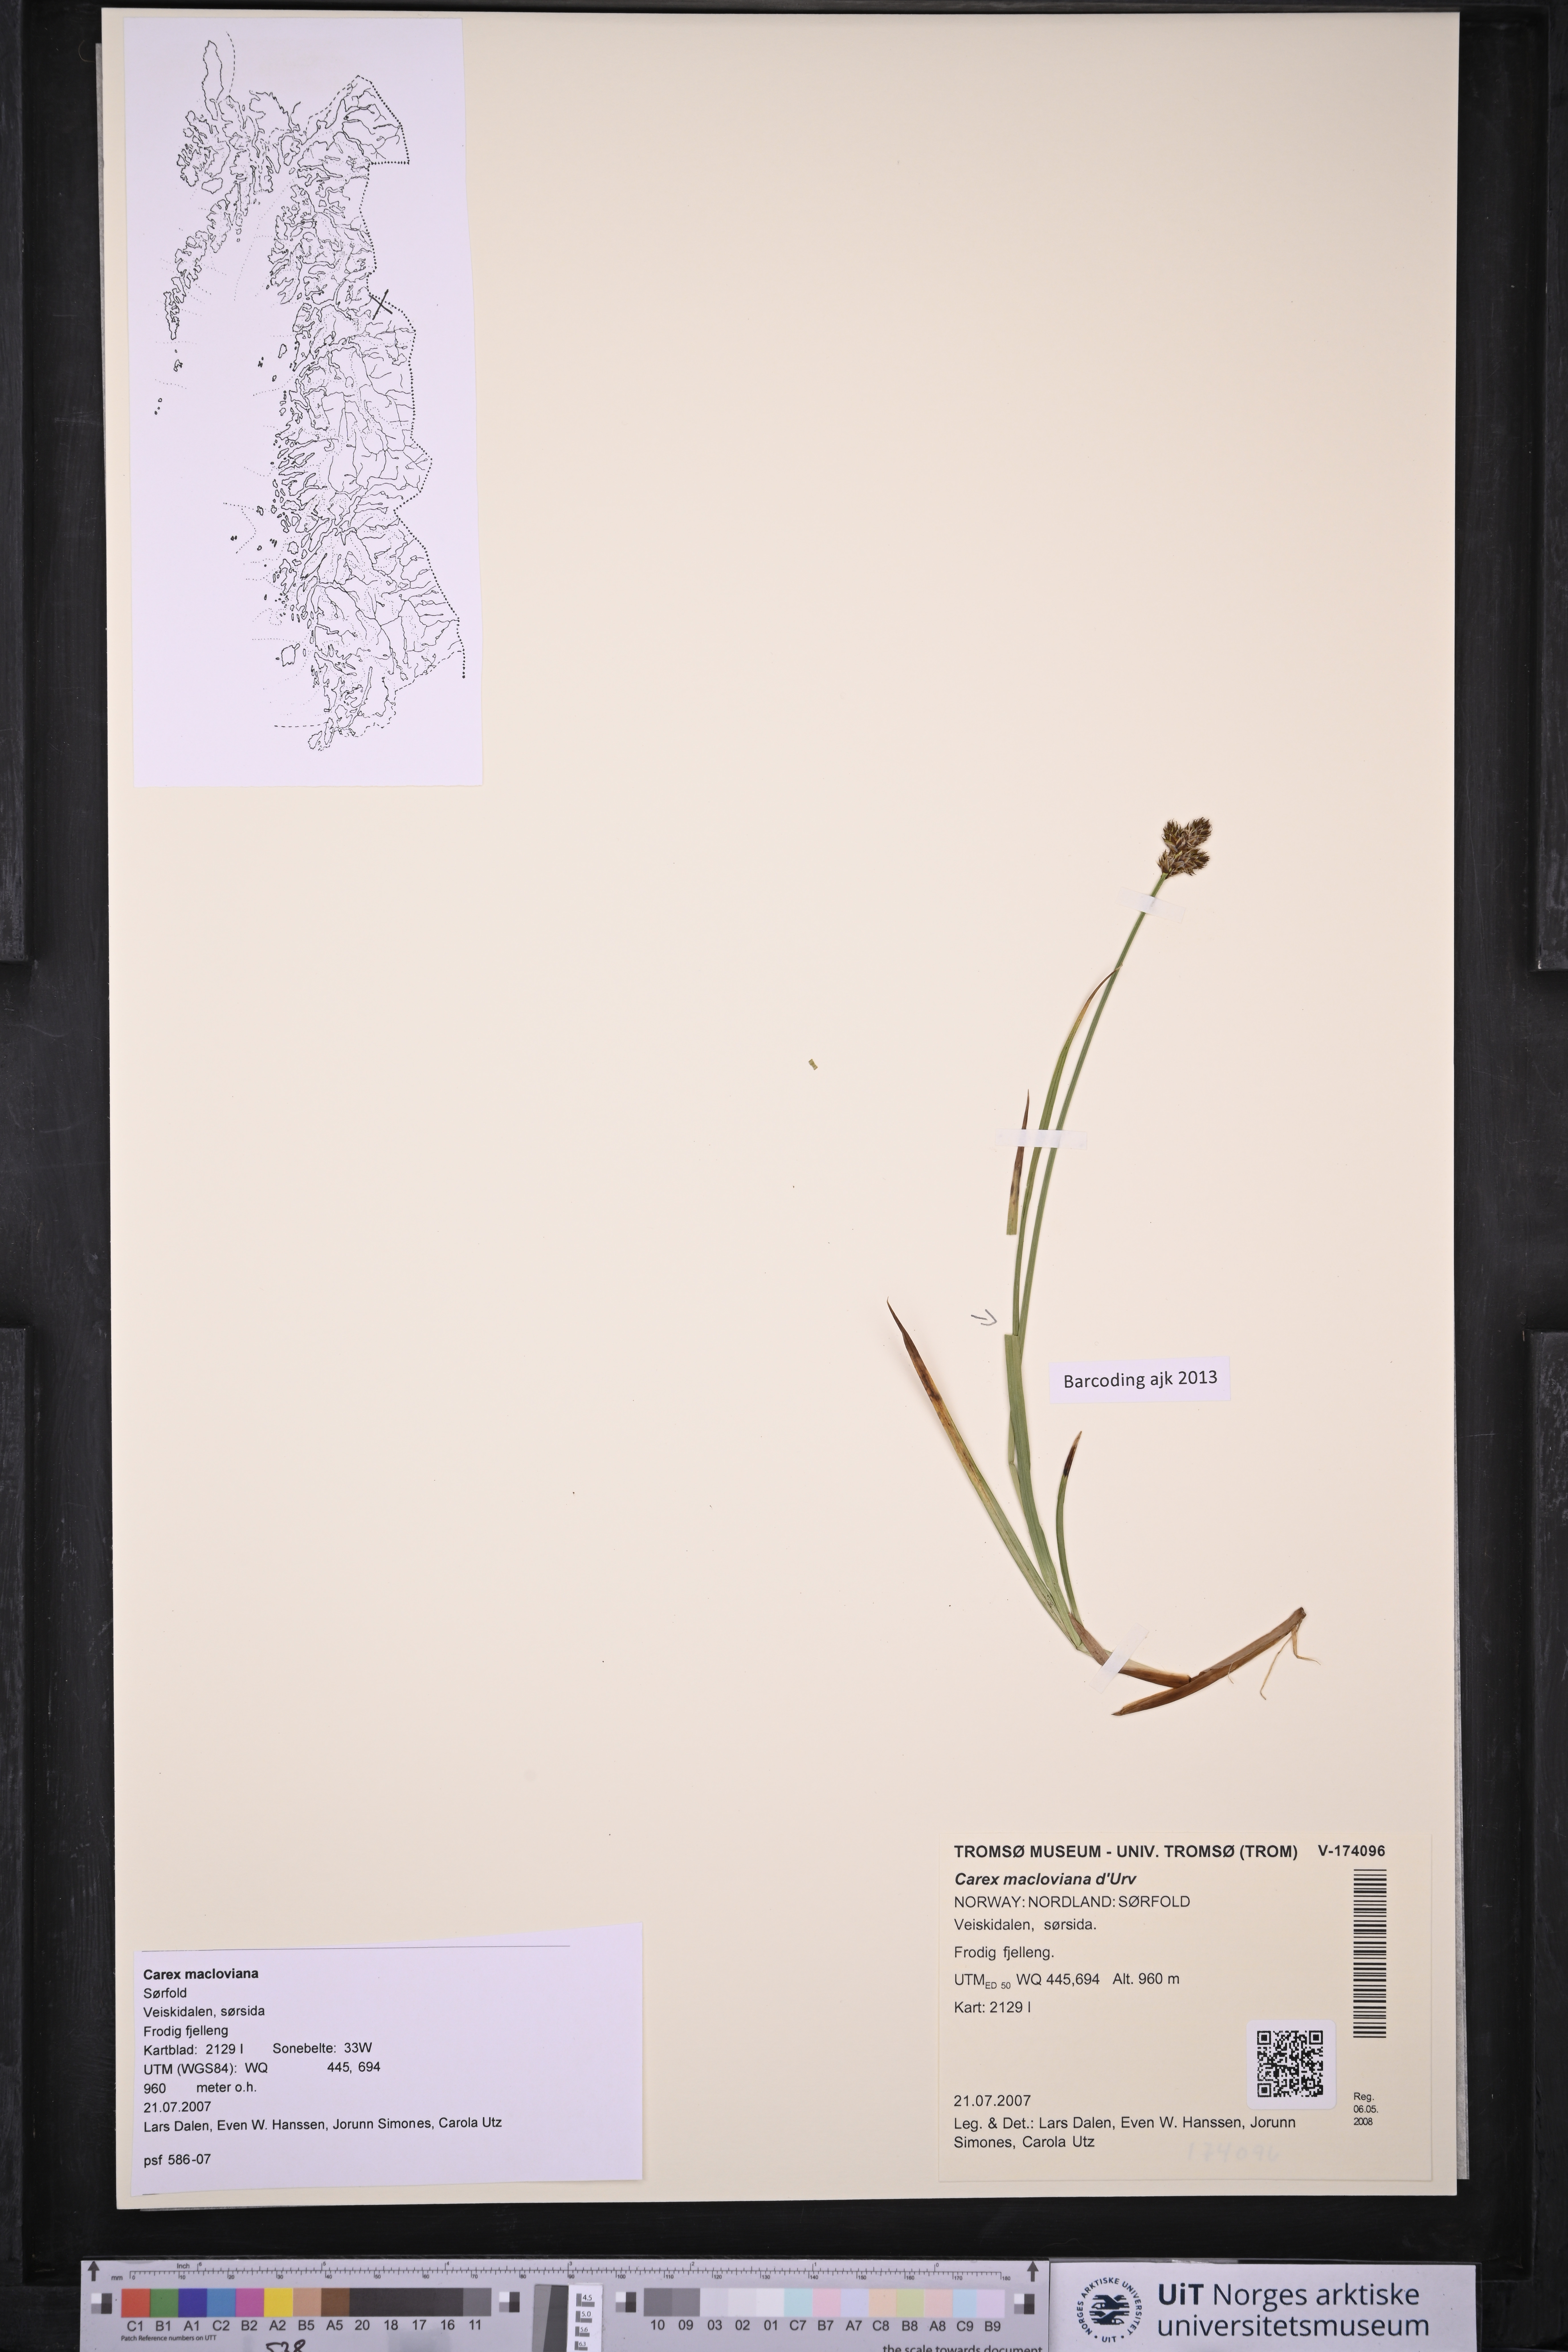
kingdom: Plantae
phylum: Tracheophyta
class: Liliopsida
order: Poales
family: Cyperaceae
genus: Carex
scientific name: Carex macloviana
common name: Falkland island sedge
